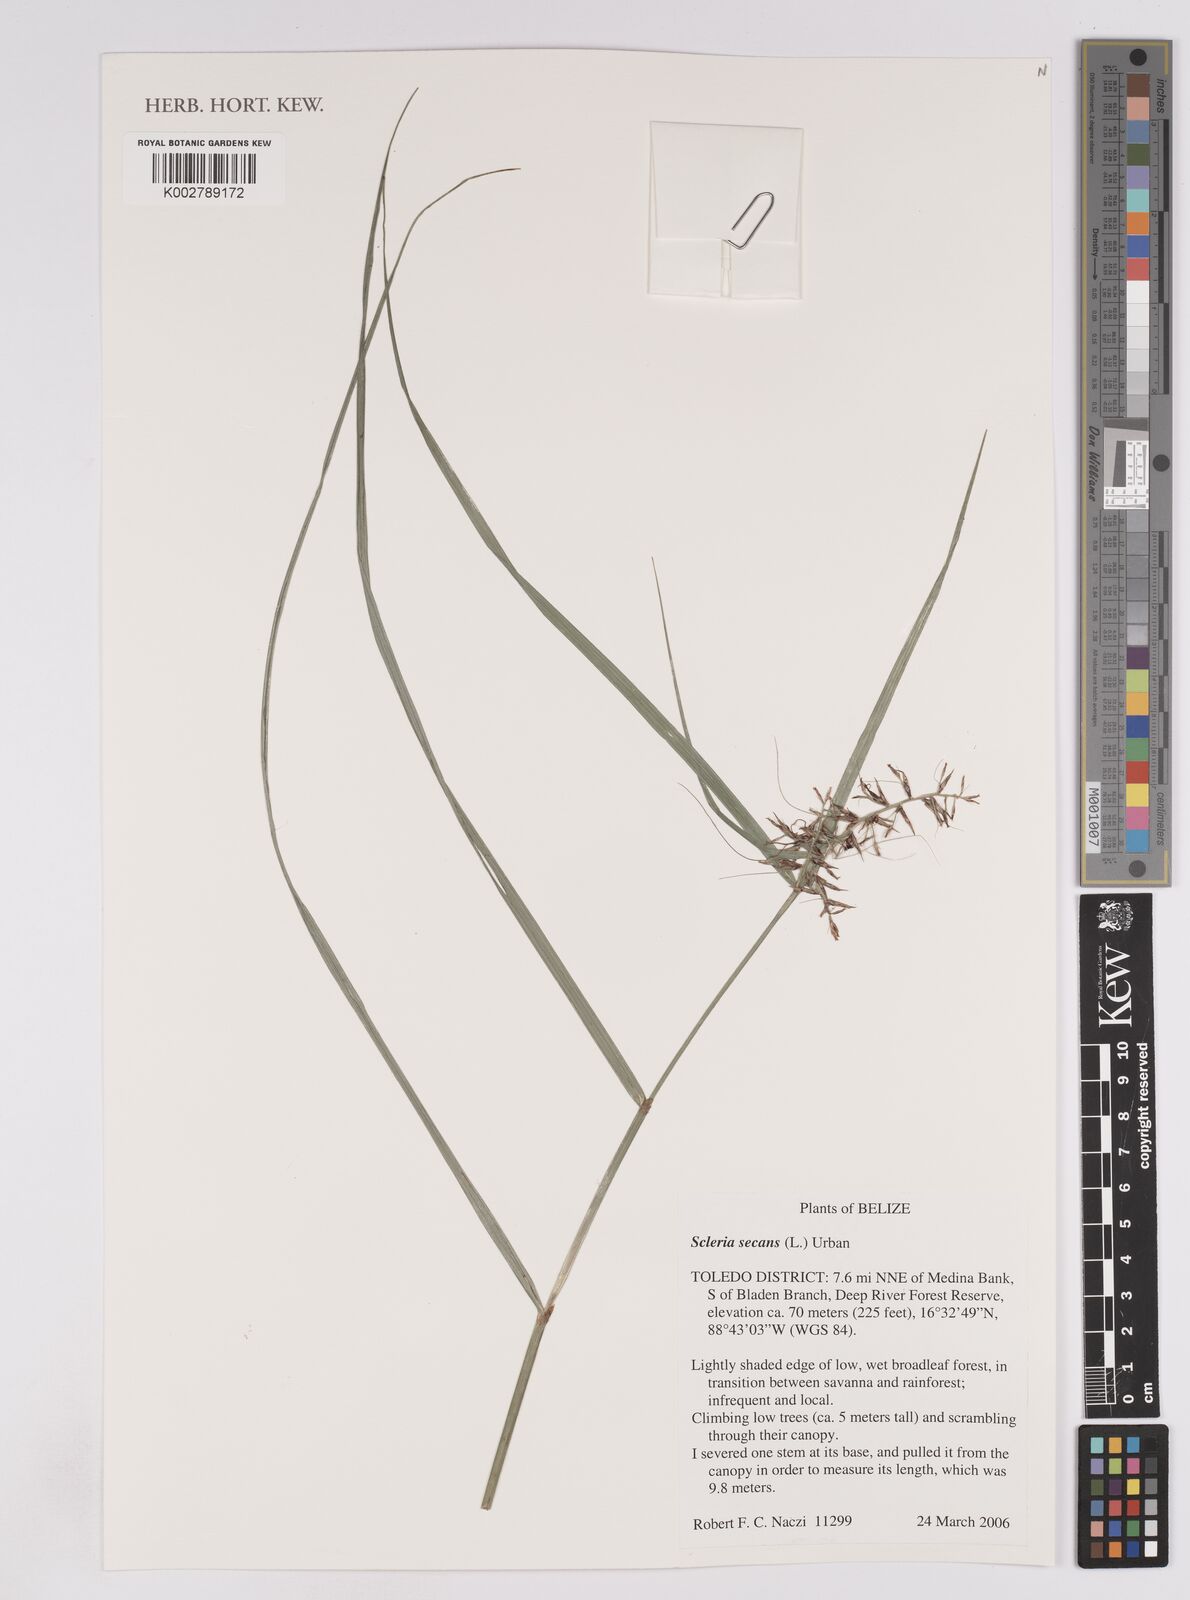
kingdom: Plantae
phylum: Tracheophyta
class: Liliopsida
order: Poales
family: Cyperaceae
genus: Scleria
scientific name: Scleria secans
